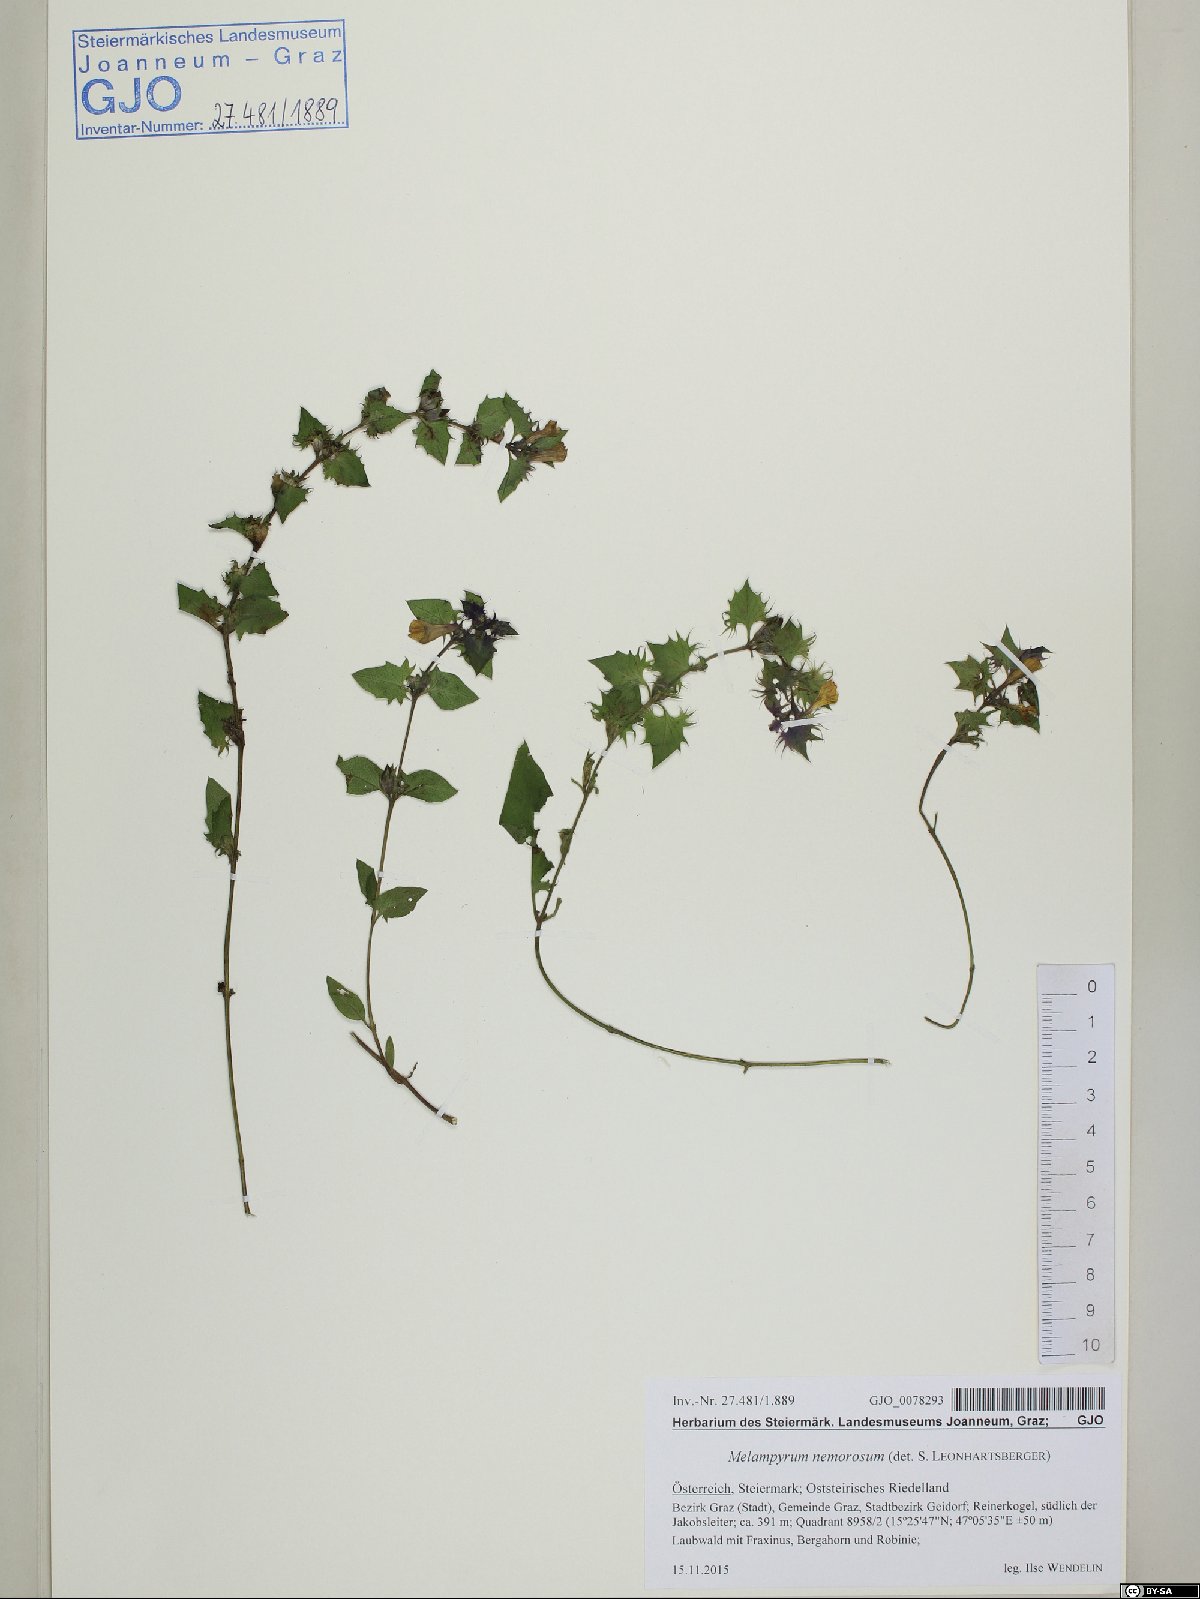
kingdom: Plantae
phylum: Tracheophyta
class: Magnoliopsida
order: Lamiales
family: Orobanchaceae
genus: Melampyrum
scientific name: Melampyrum nemorosum
